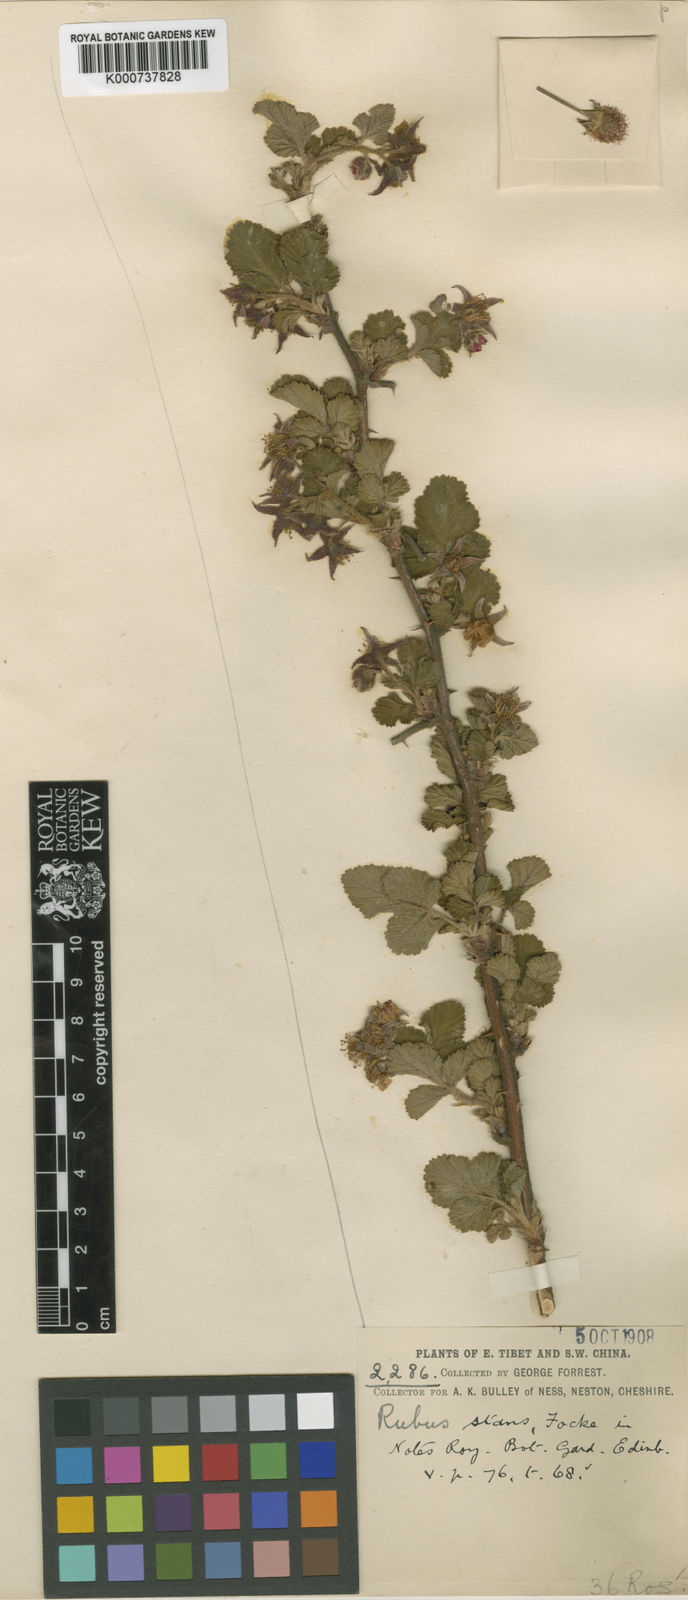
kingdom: Plantae
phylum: Tracheophyta
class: Magnoliopsida
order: Rosales
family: Rosaceae
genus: Rubus
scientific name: Rubus stans
